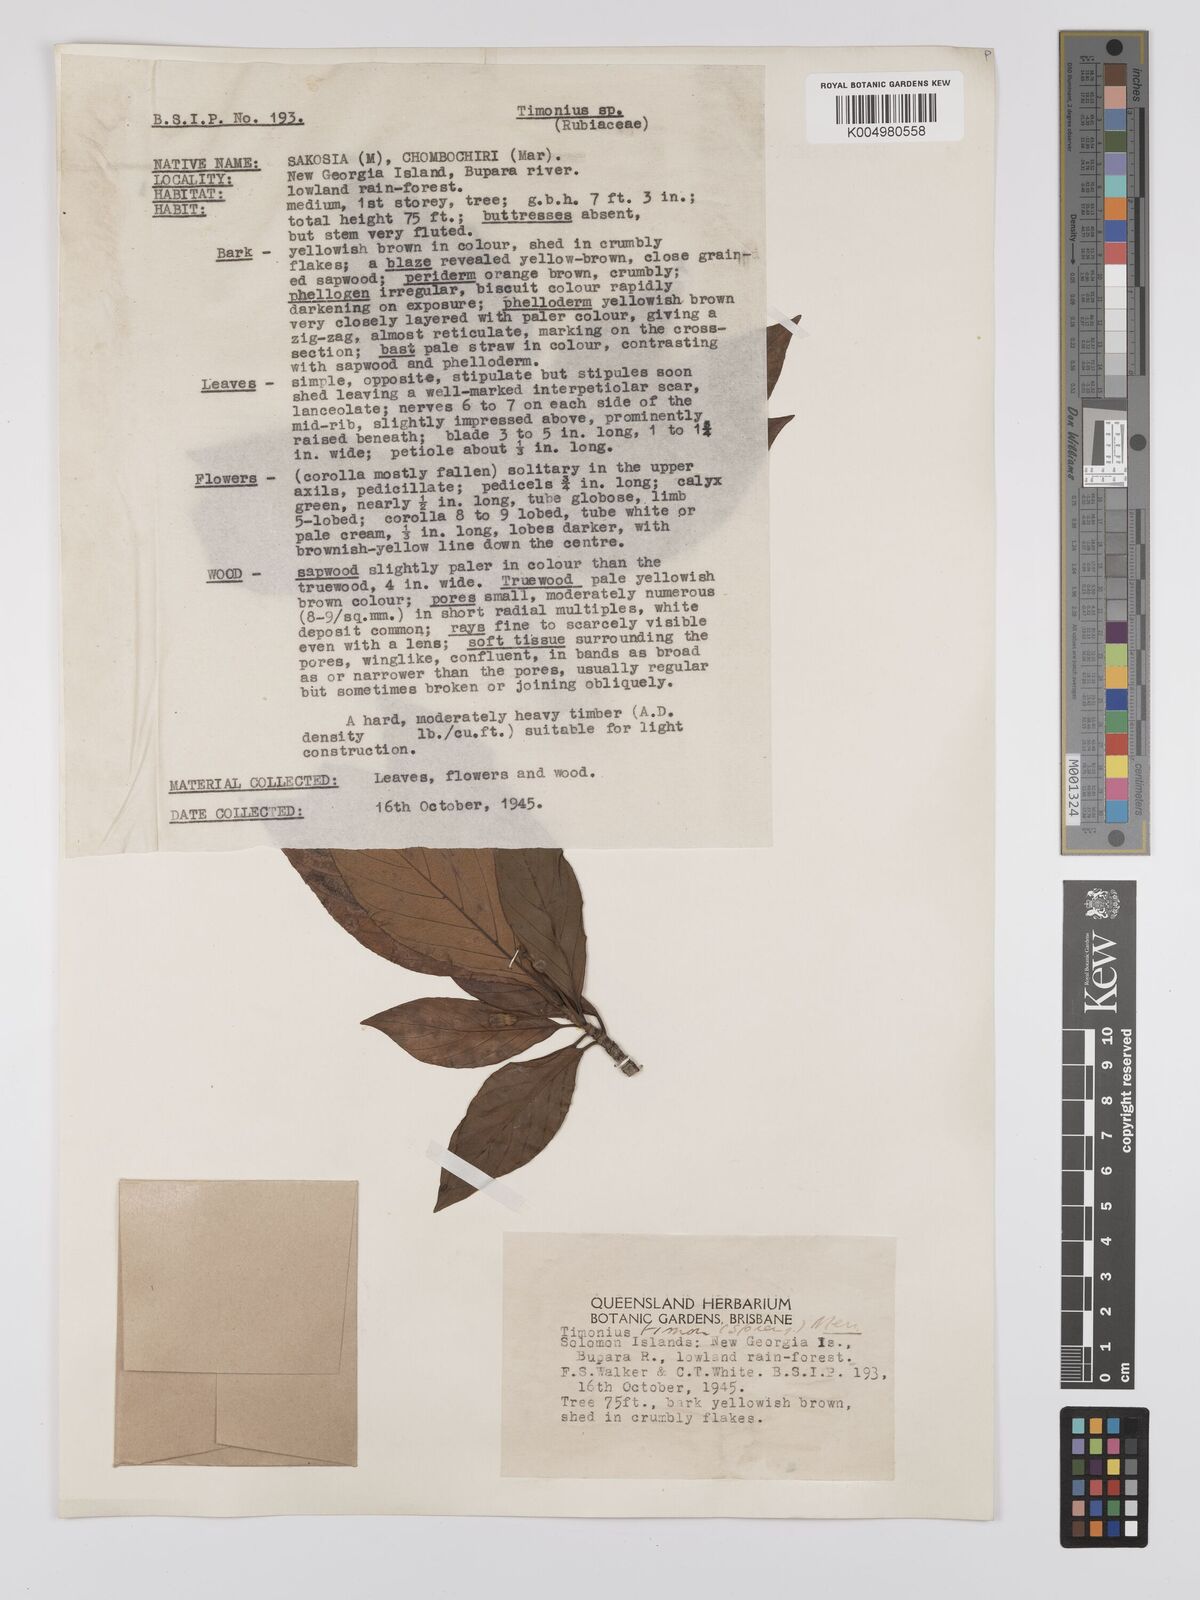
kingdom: Plantae
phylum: Tracheophyta
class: Magnoliopsida
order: Gentianales
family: Rubiaceae
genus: Timonius
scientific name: Timonius timon
